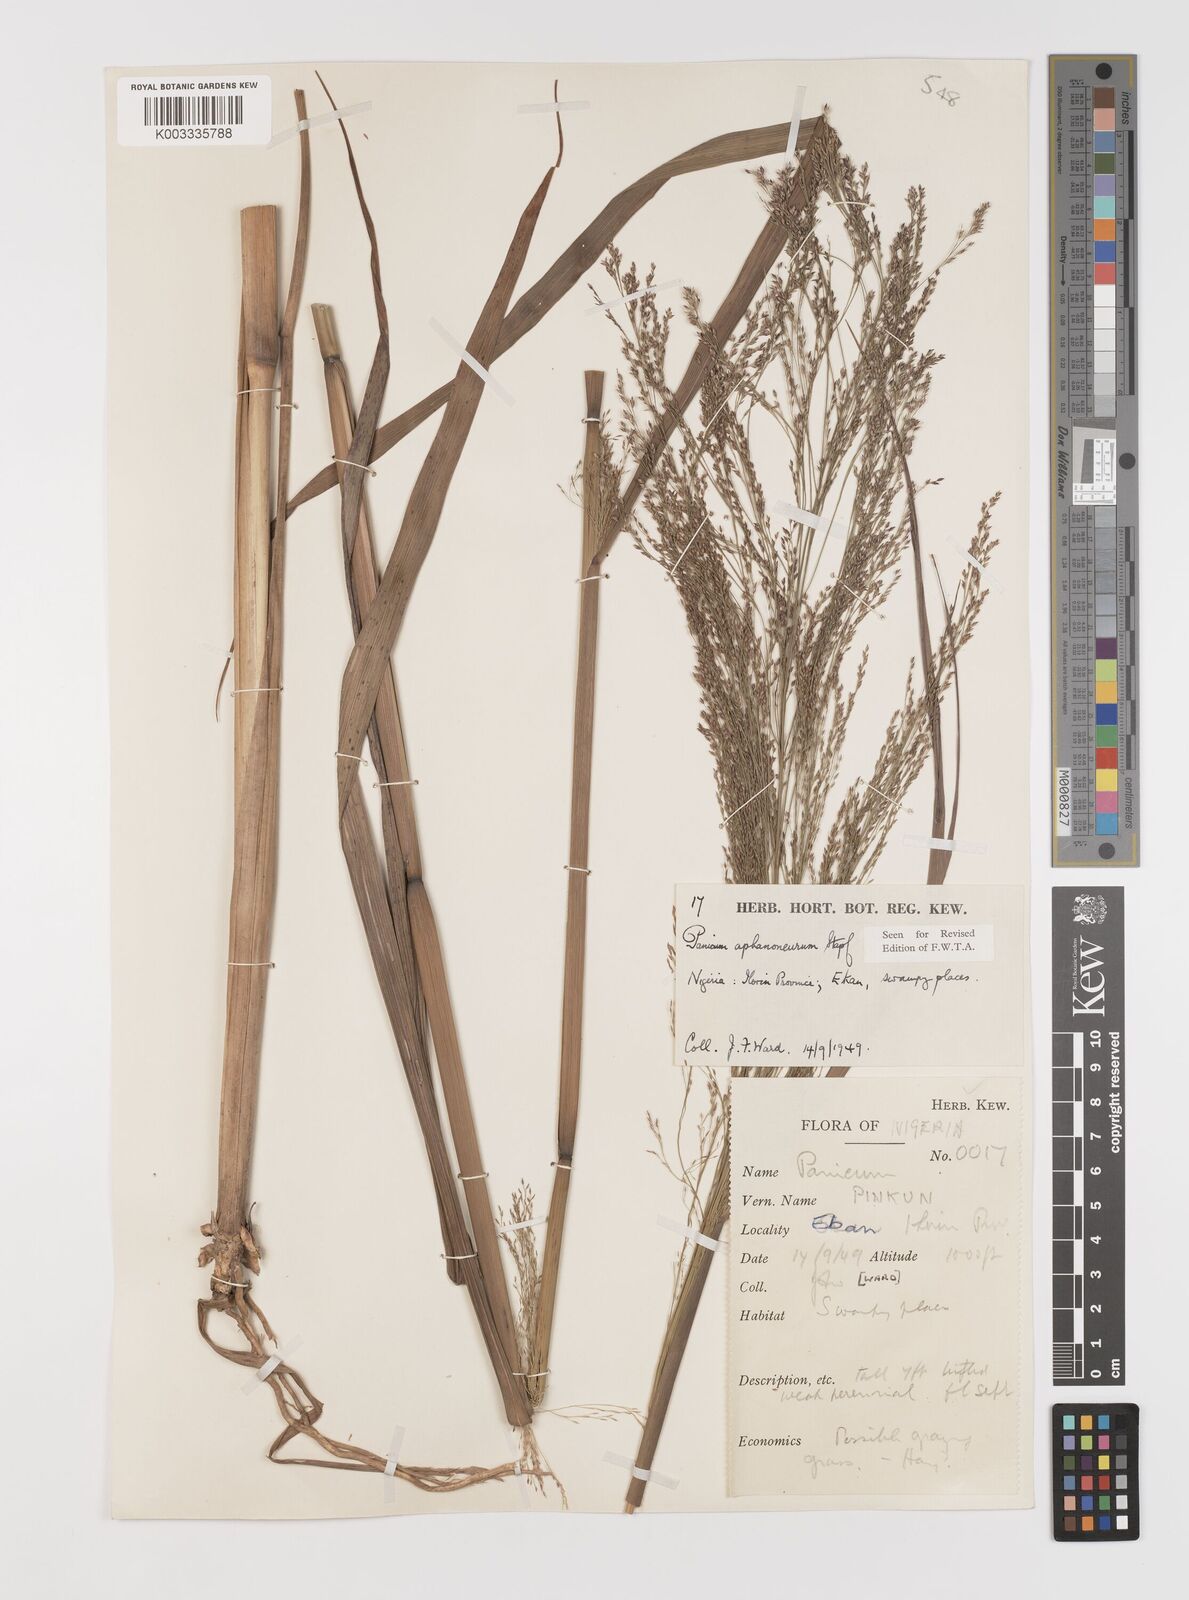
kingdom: Plantae
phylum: Tracheophyta
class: Liliopsida
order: Poales
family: Poaceae
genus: Panicum
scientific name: Panicum fluviicola
